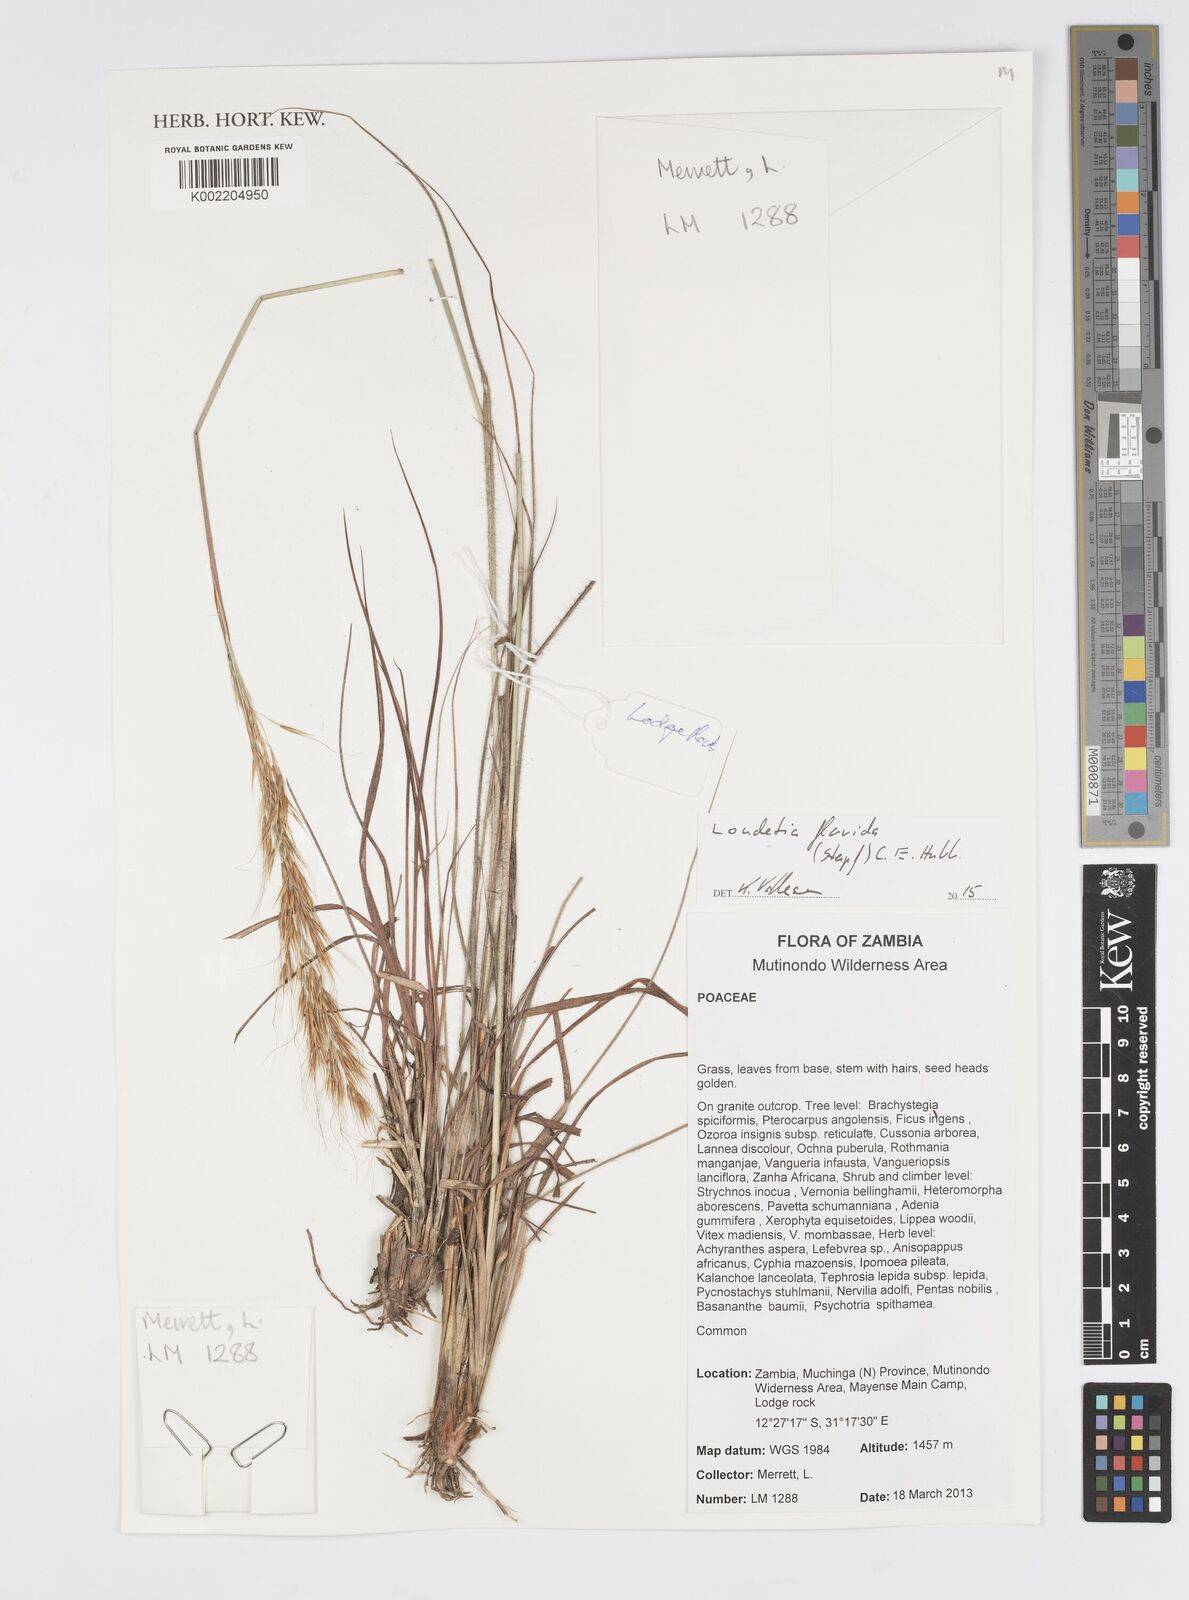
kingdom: Plantae
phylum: Tracheophyta
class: Liliopsida
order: Poales
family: Poaceae
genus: Loudetia
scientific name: Loudetia flavida
